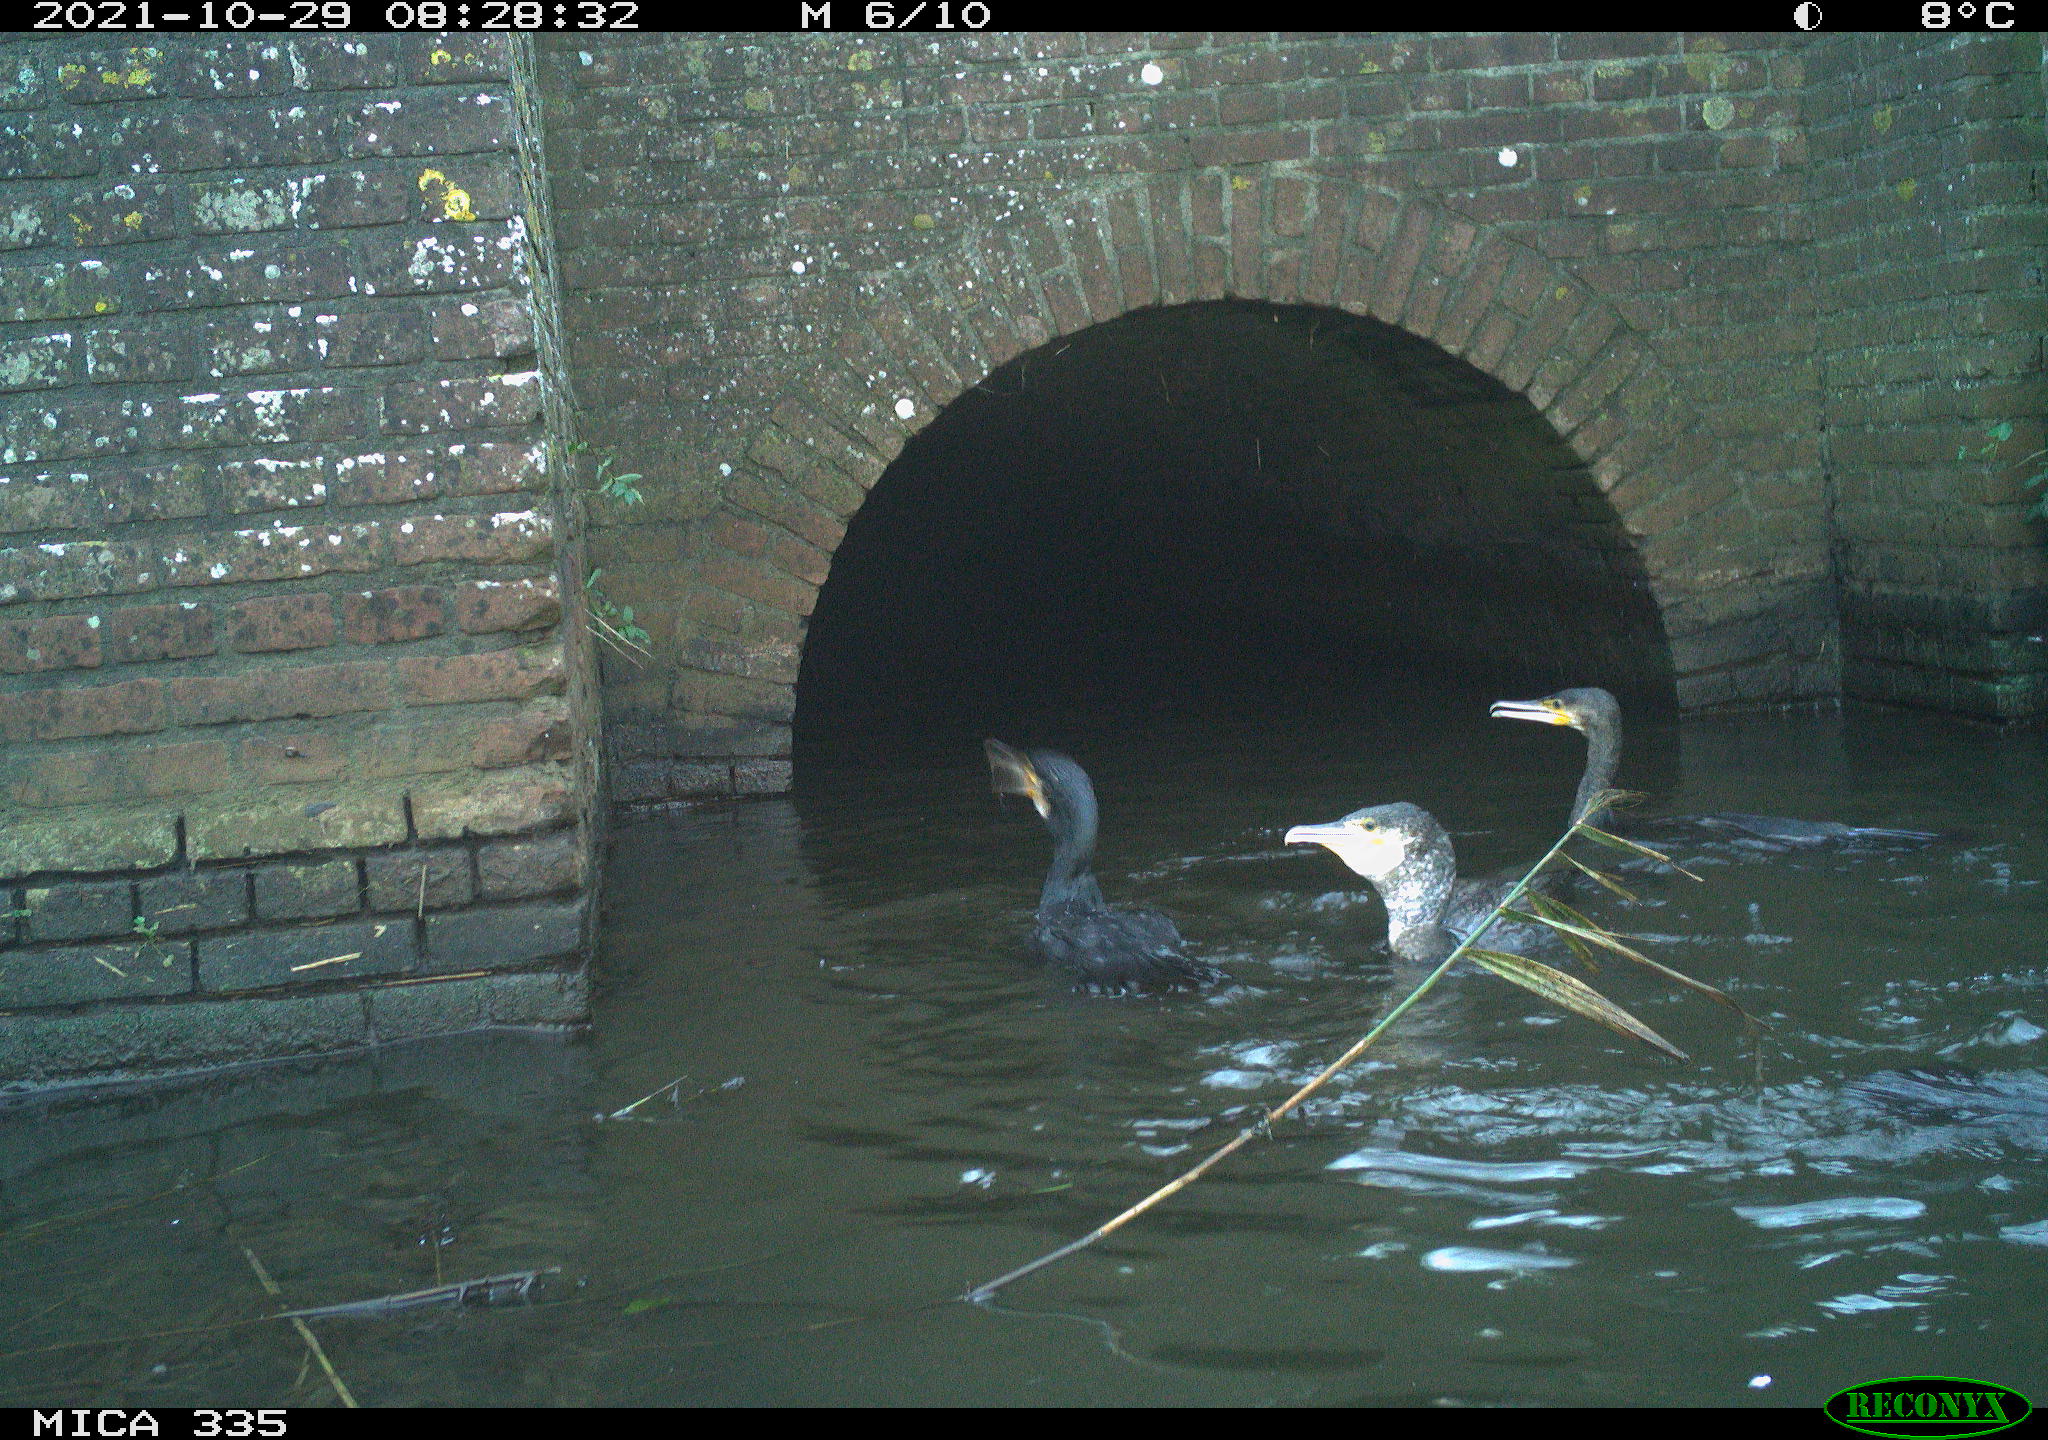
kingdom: Animalia
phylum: Chordata
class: Aves
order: Suliformes
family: Phalacrocoracidae
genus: Phalacrocorax
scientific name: Phalacrocorax carbo
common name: Great cormorant
